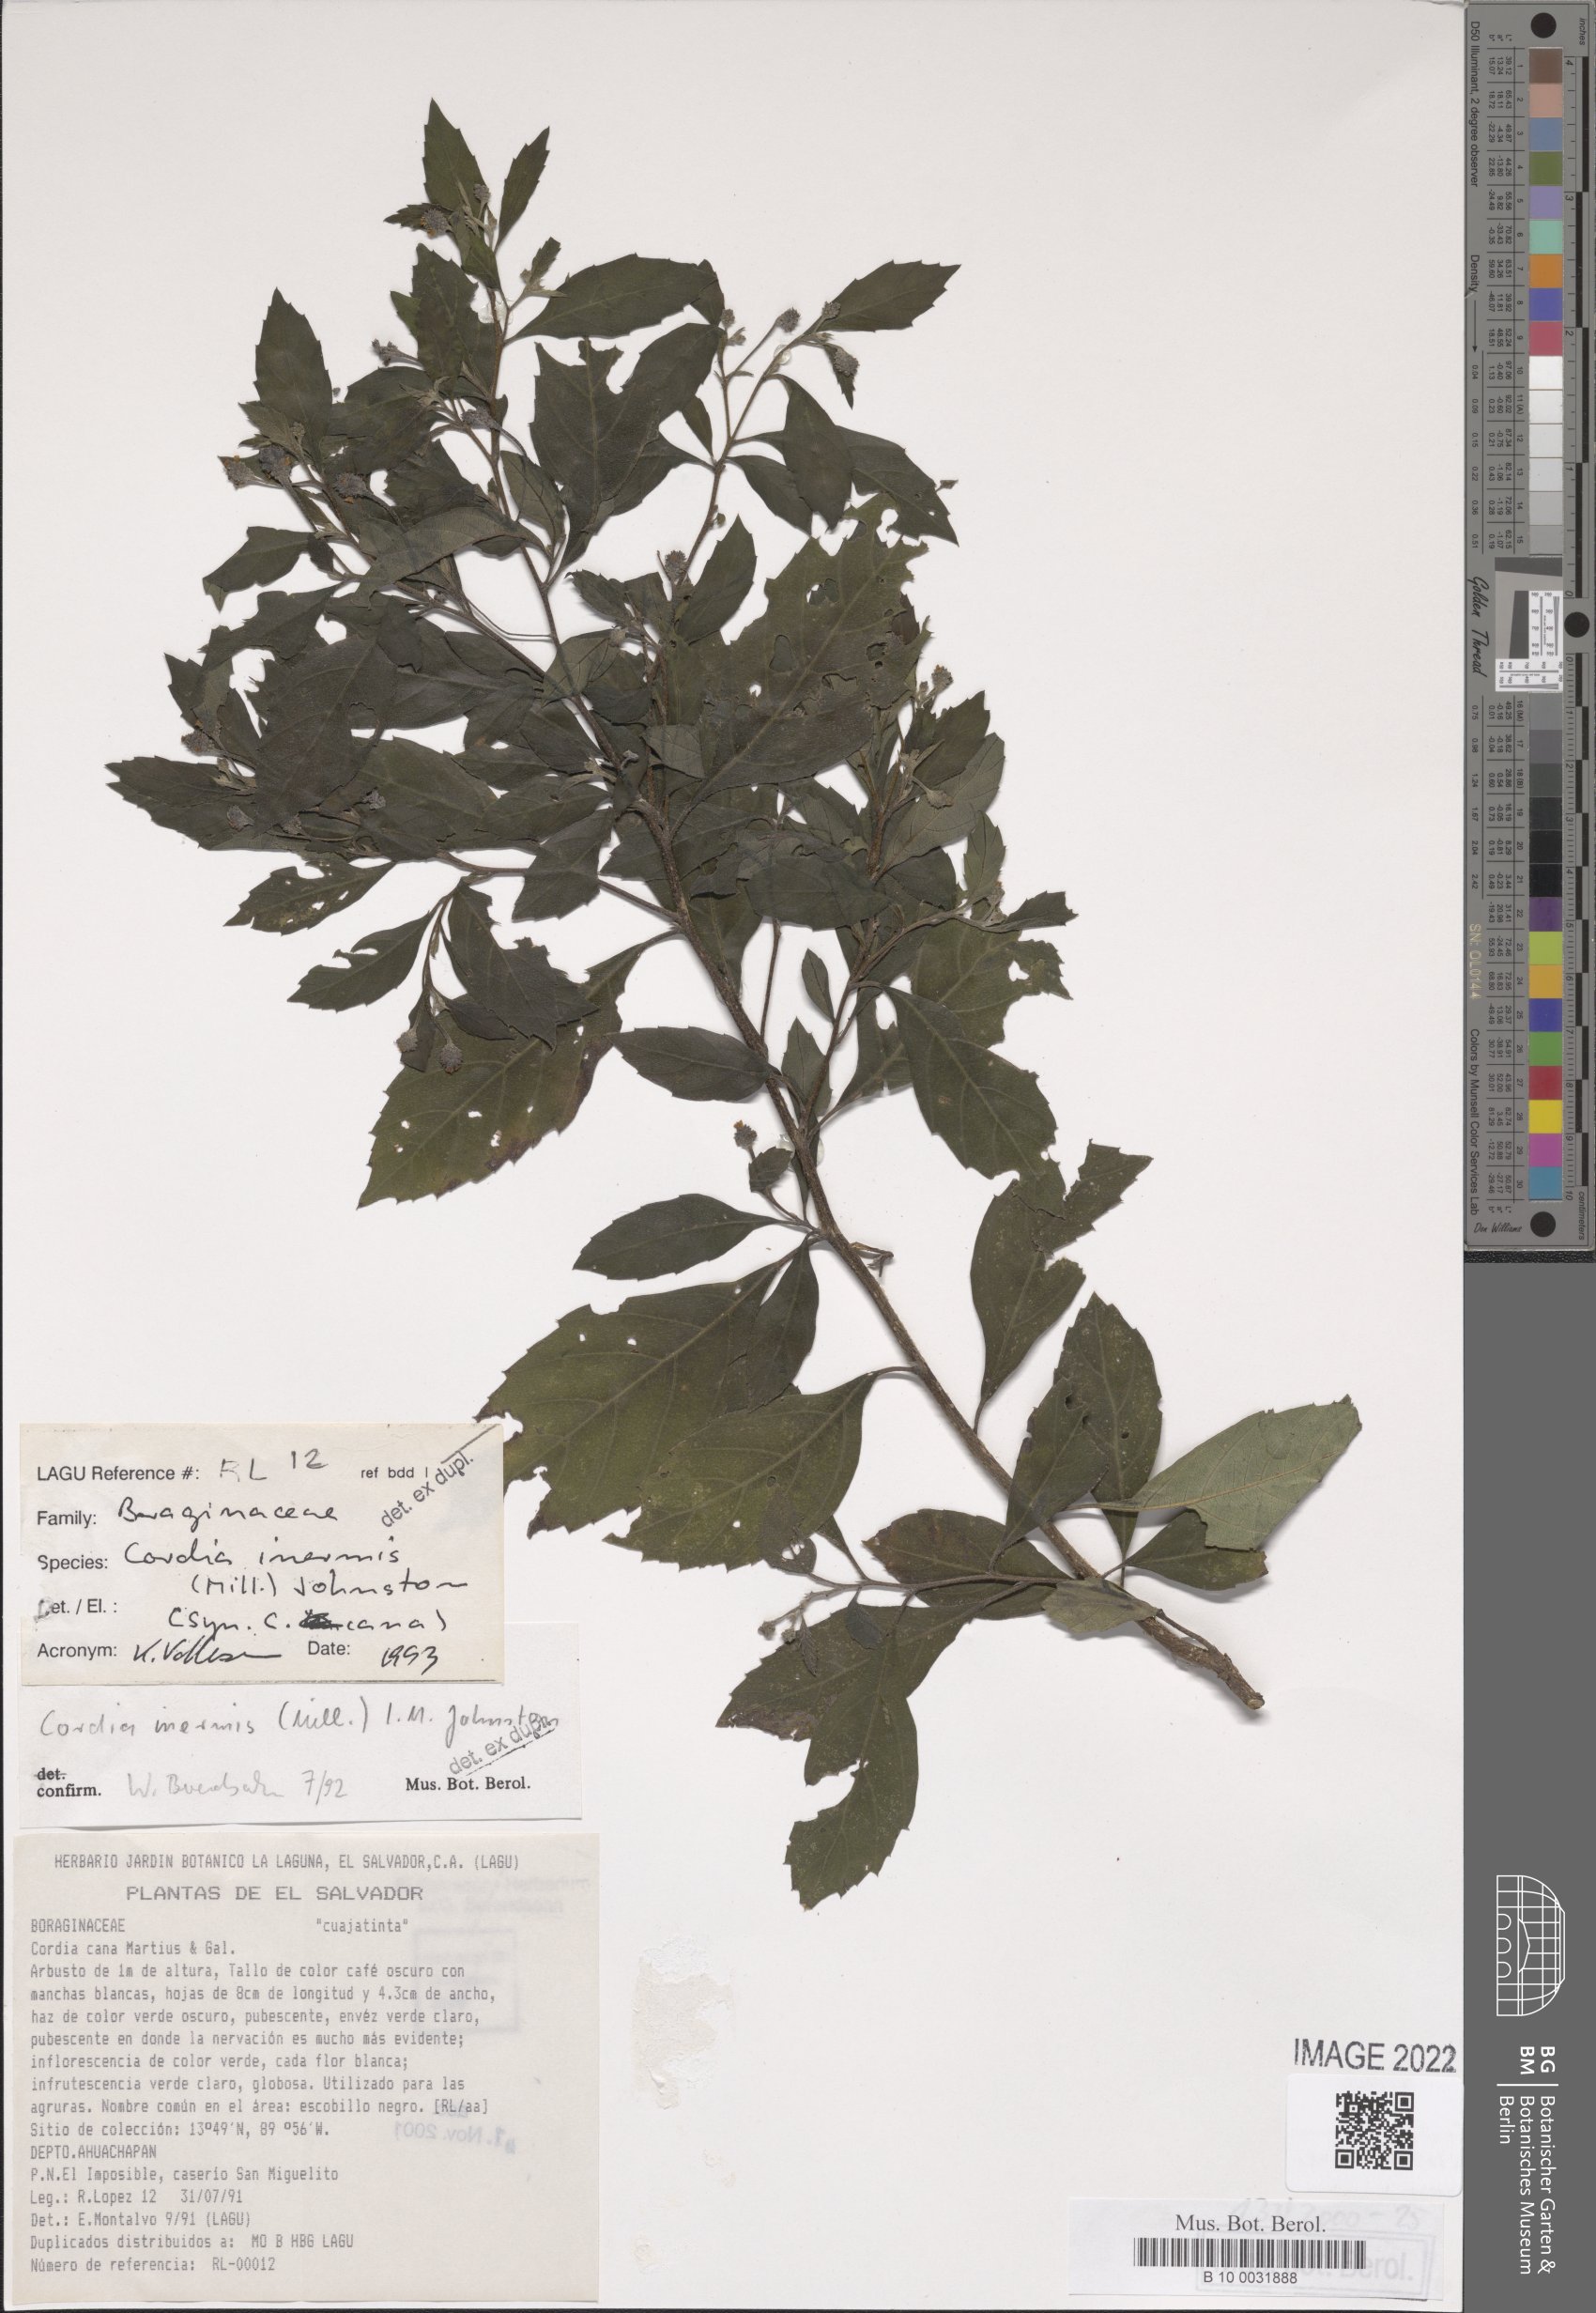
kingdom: Plantae
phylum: Tracheophyta
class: Magnoliopsida
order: Boraginales
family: Cordiaceae
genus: Varronia
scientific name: Varronia inermis
